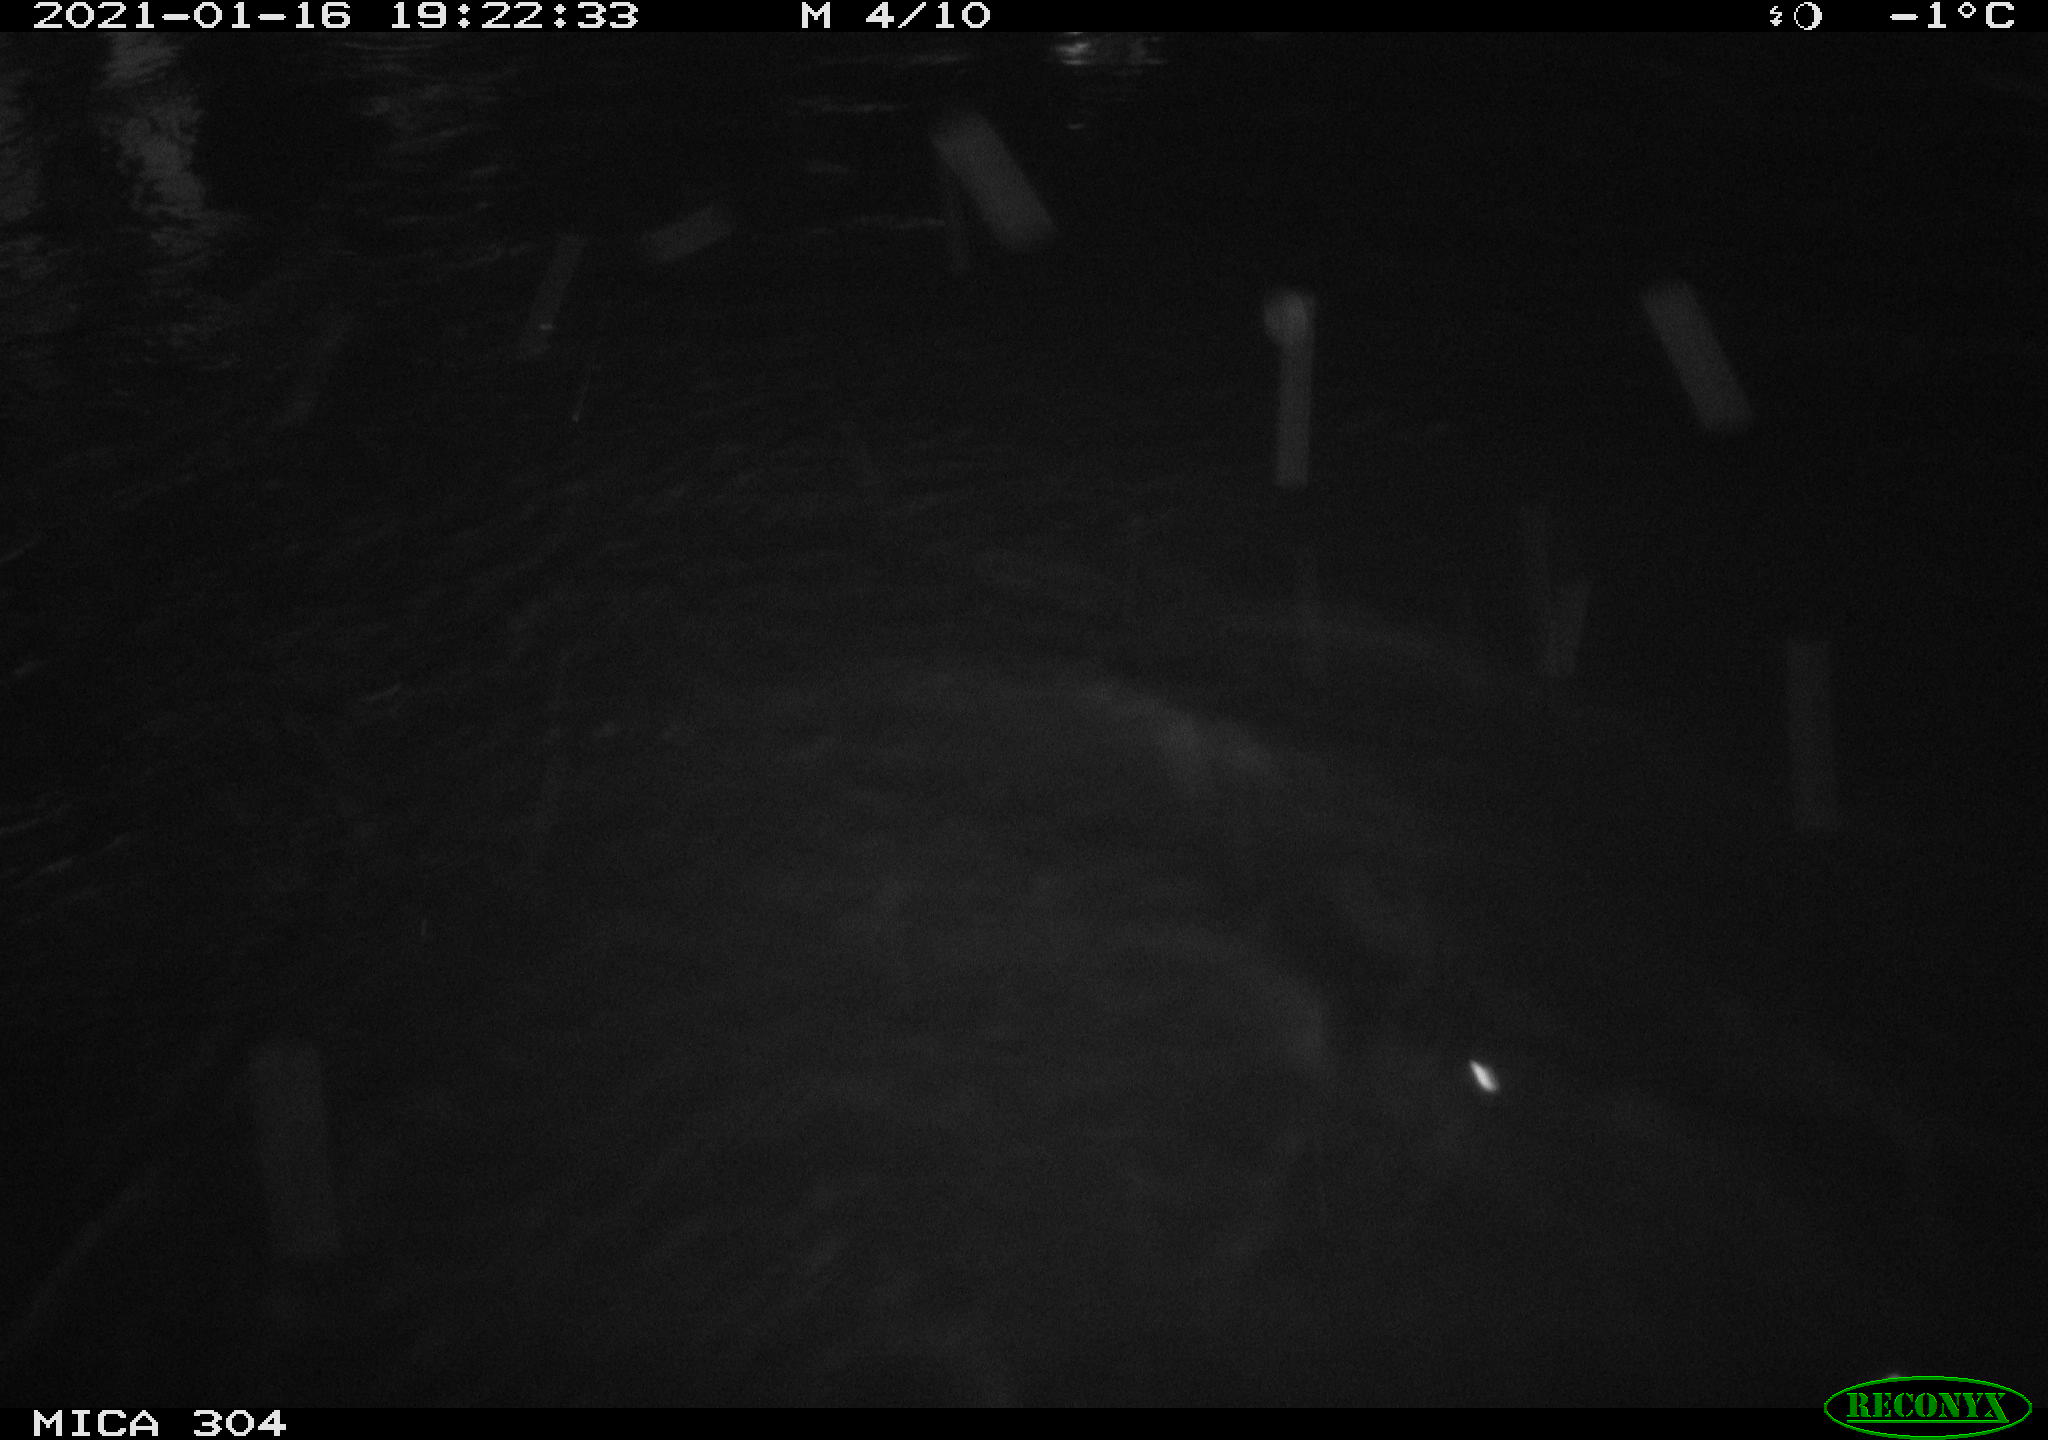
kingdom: Animalia
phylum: Chordata
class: Aves
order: Anseriformes
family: Anatidae
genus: Anas
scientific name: Anas platyrhynchos
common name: Mallard
